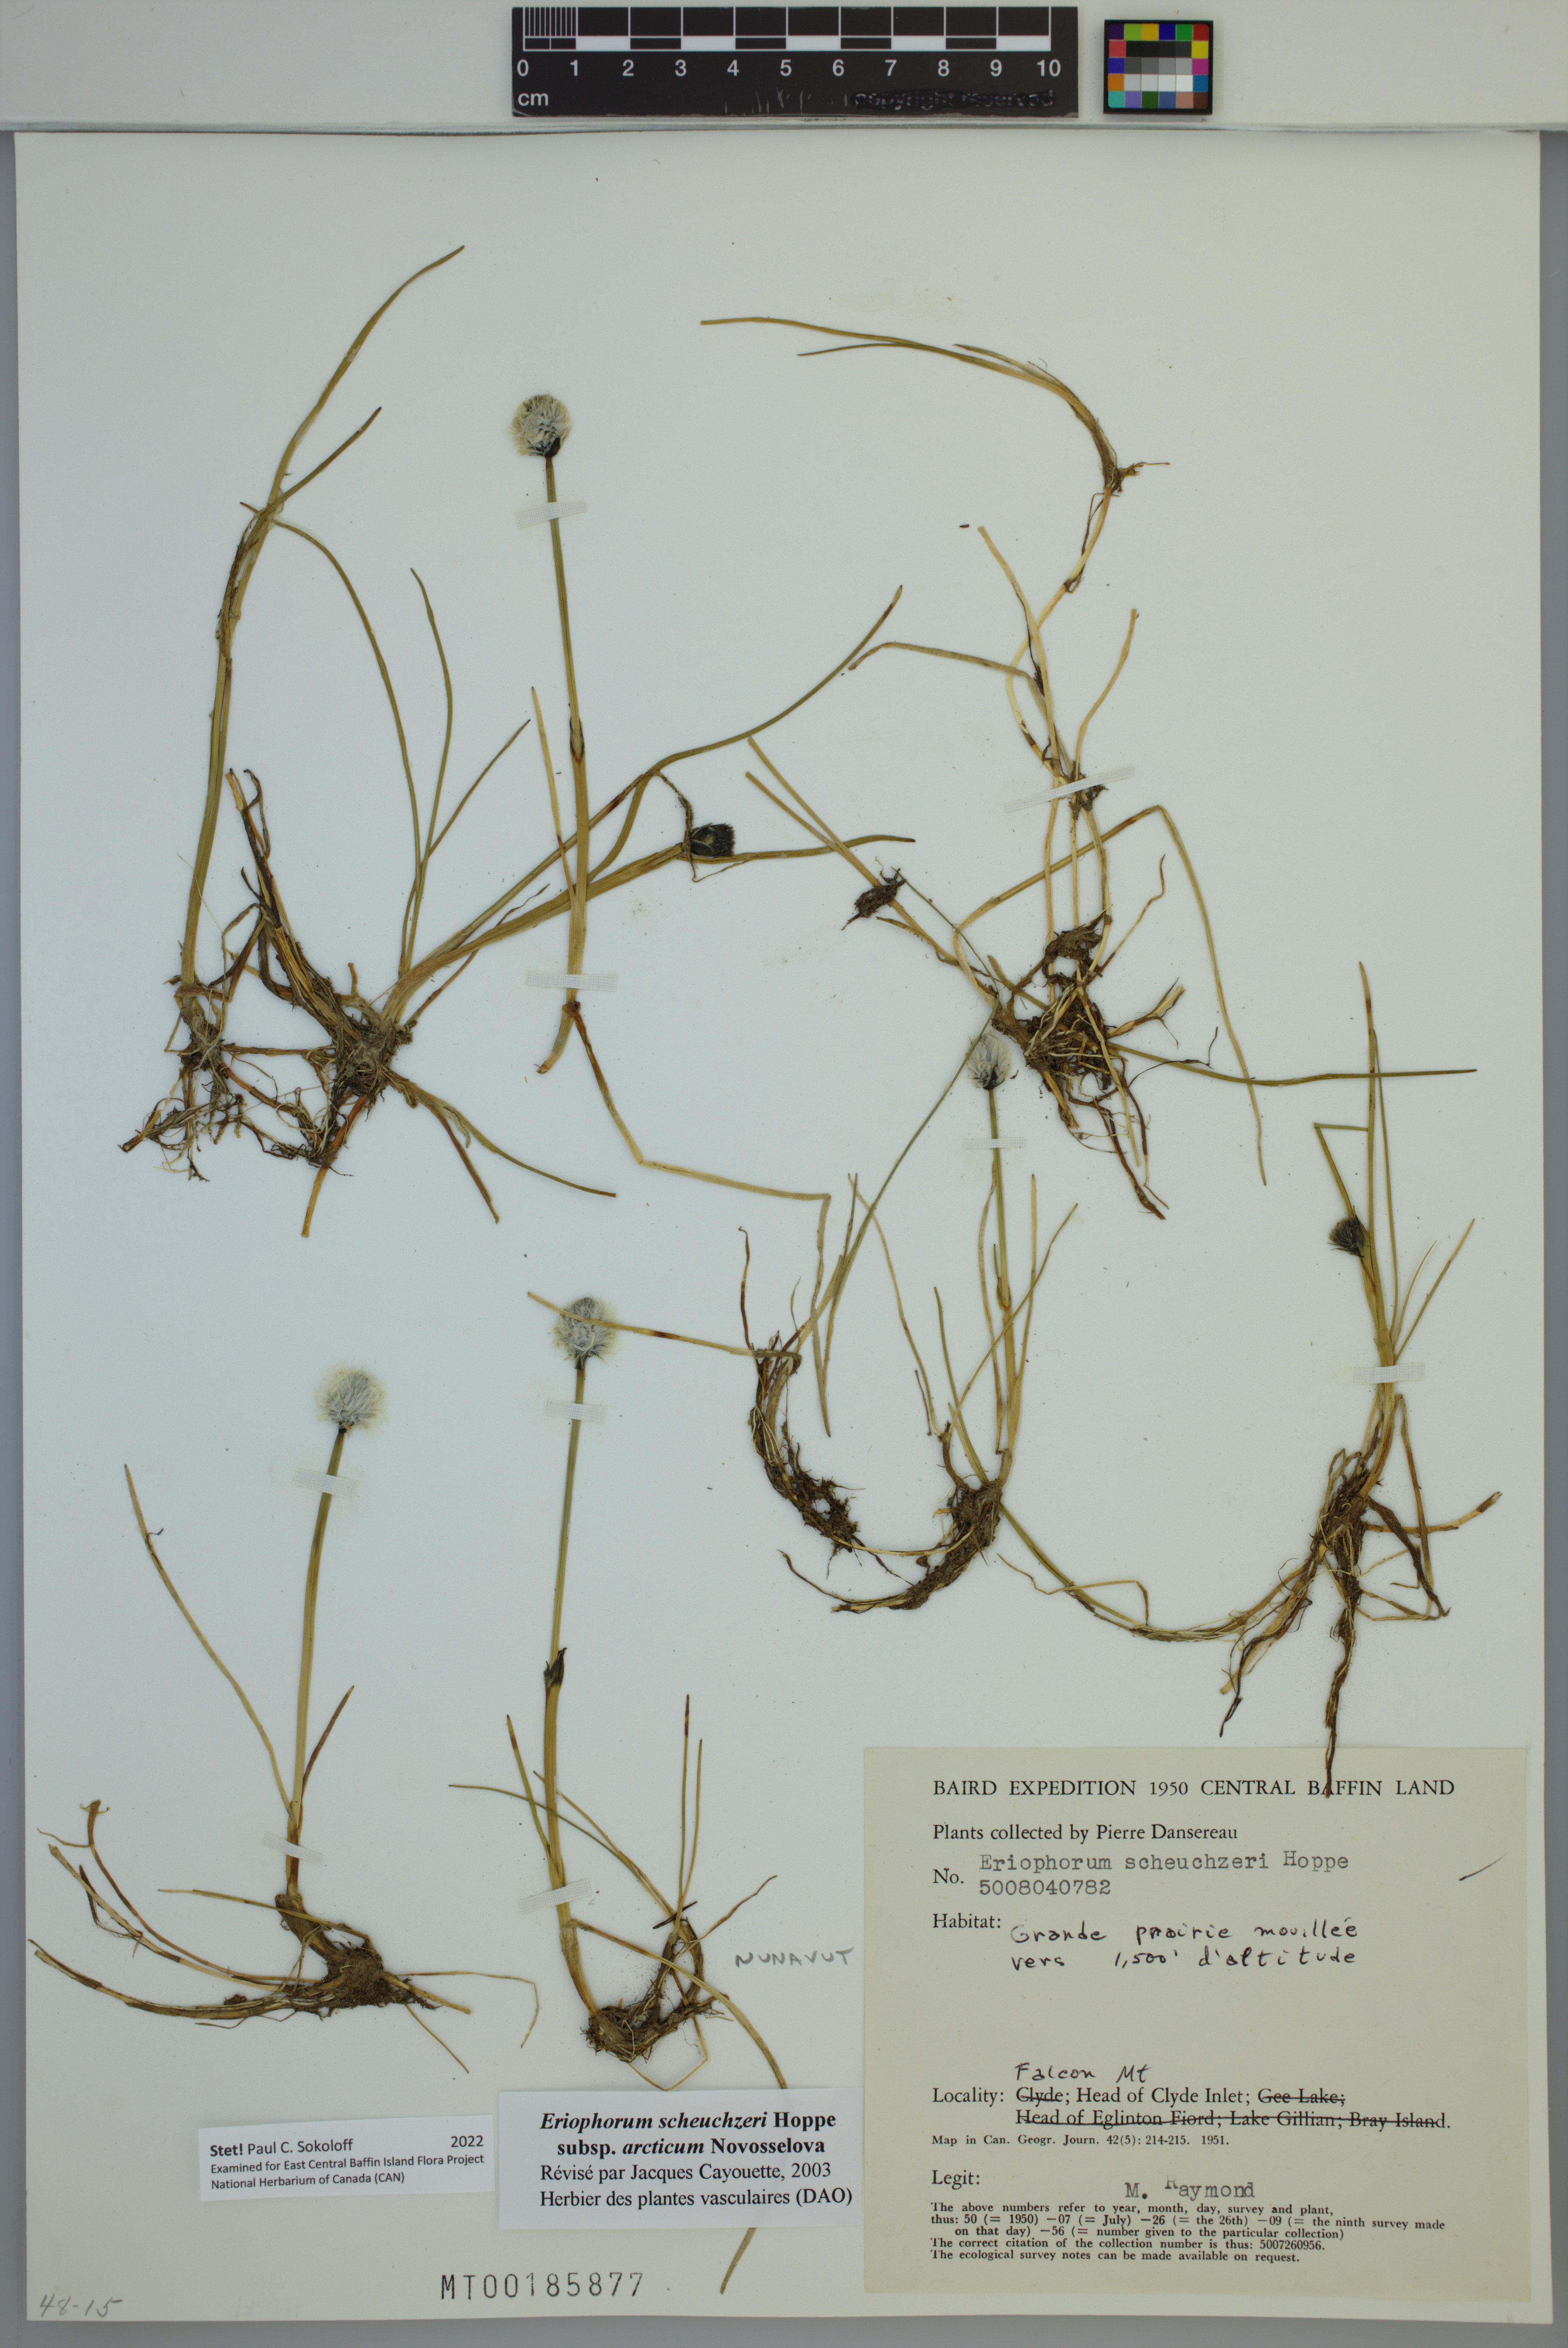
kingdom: Plantae
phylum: Tracheophyta
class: Liliopsida
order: Poales
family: Cyperaceae
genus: Eriophorum
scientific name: Eriophorum scheuchzeri
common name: Scheuchzer's cottongrass
